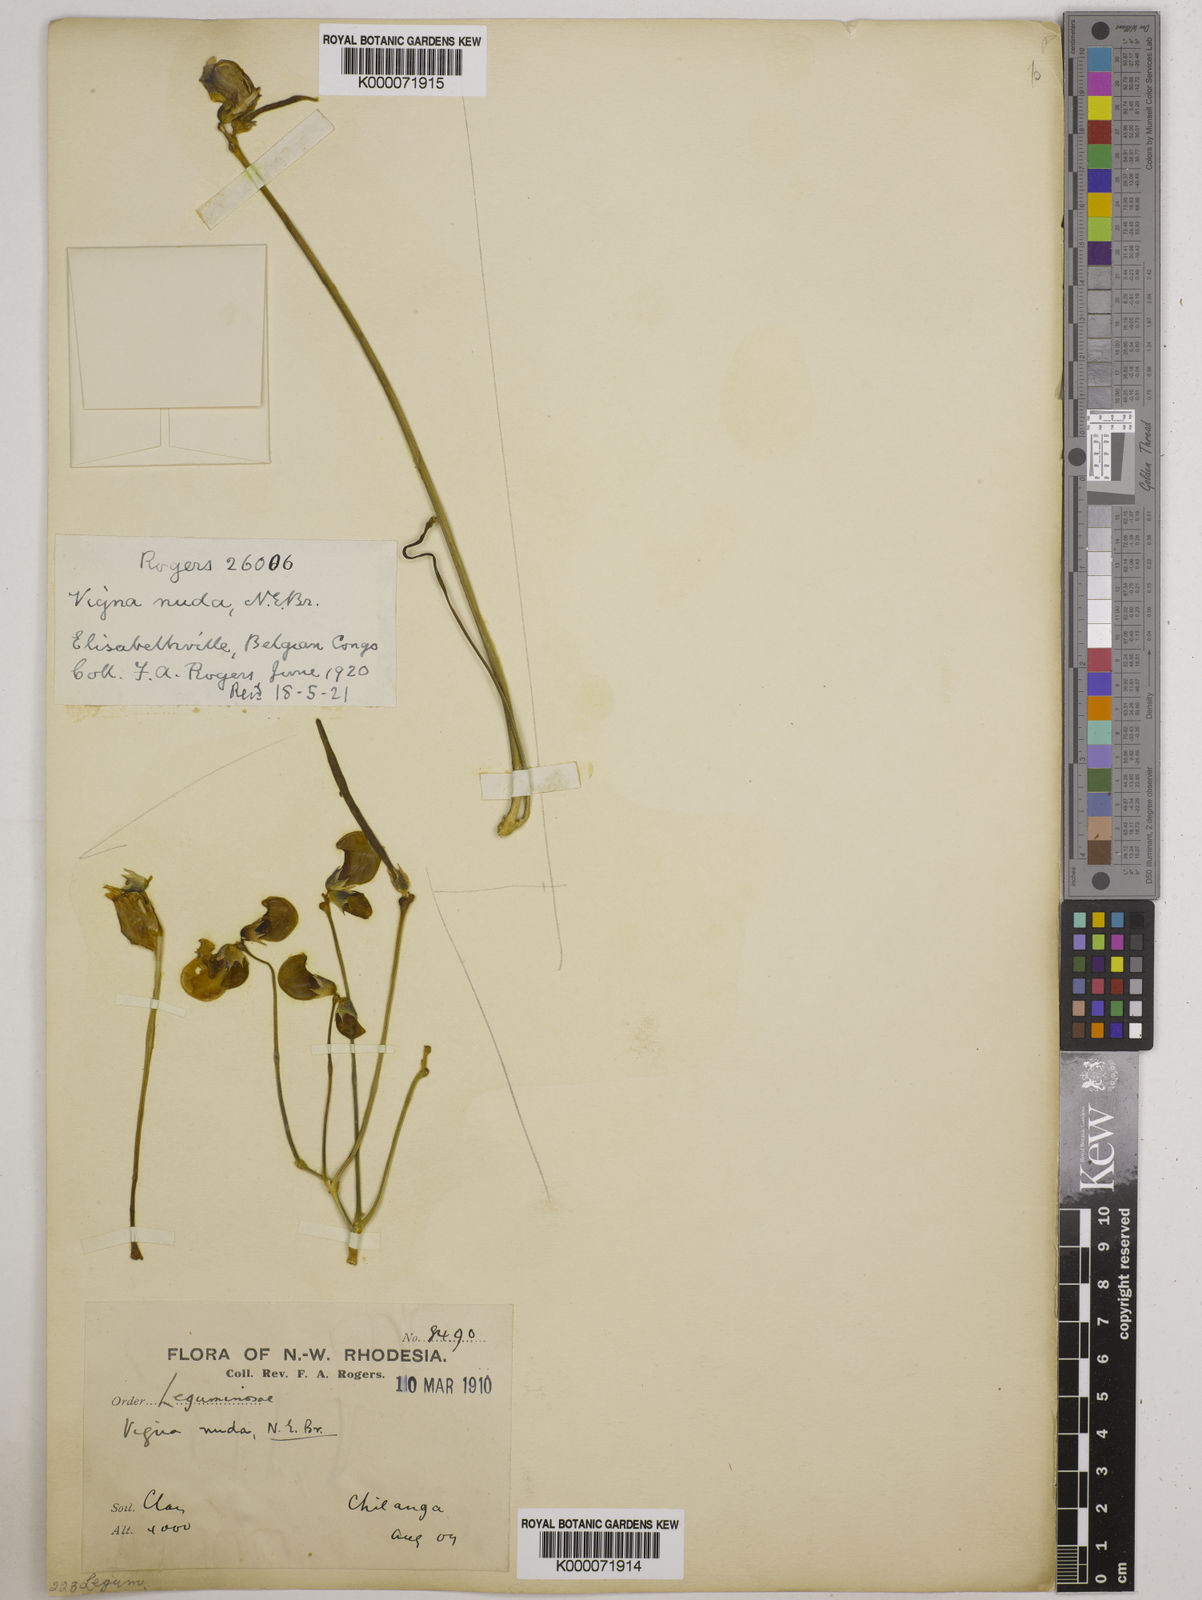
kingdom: Plantae
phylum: Tracheophyta
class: Magnoliopsida
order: Fabales
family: Fabaceae
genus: Vigna
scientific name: Vigna antunesii
